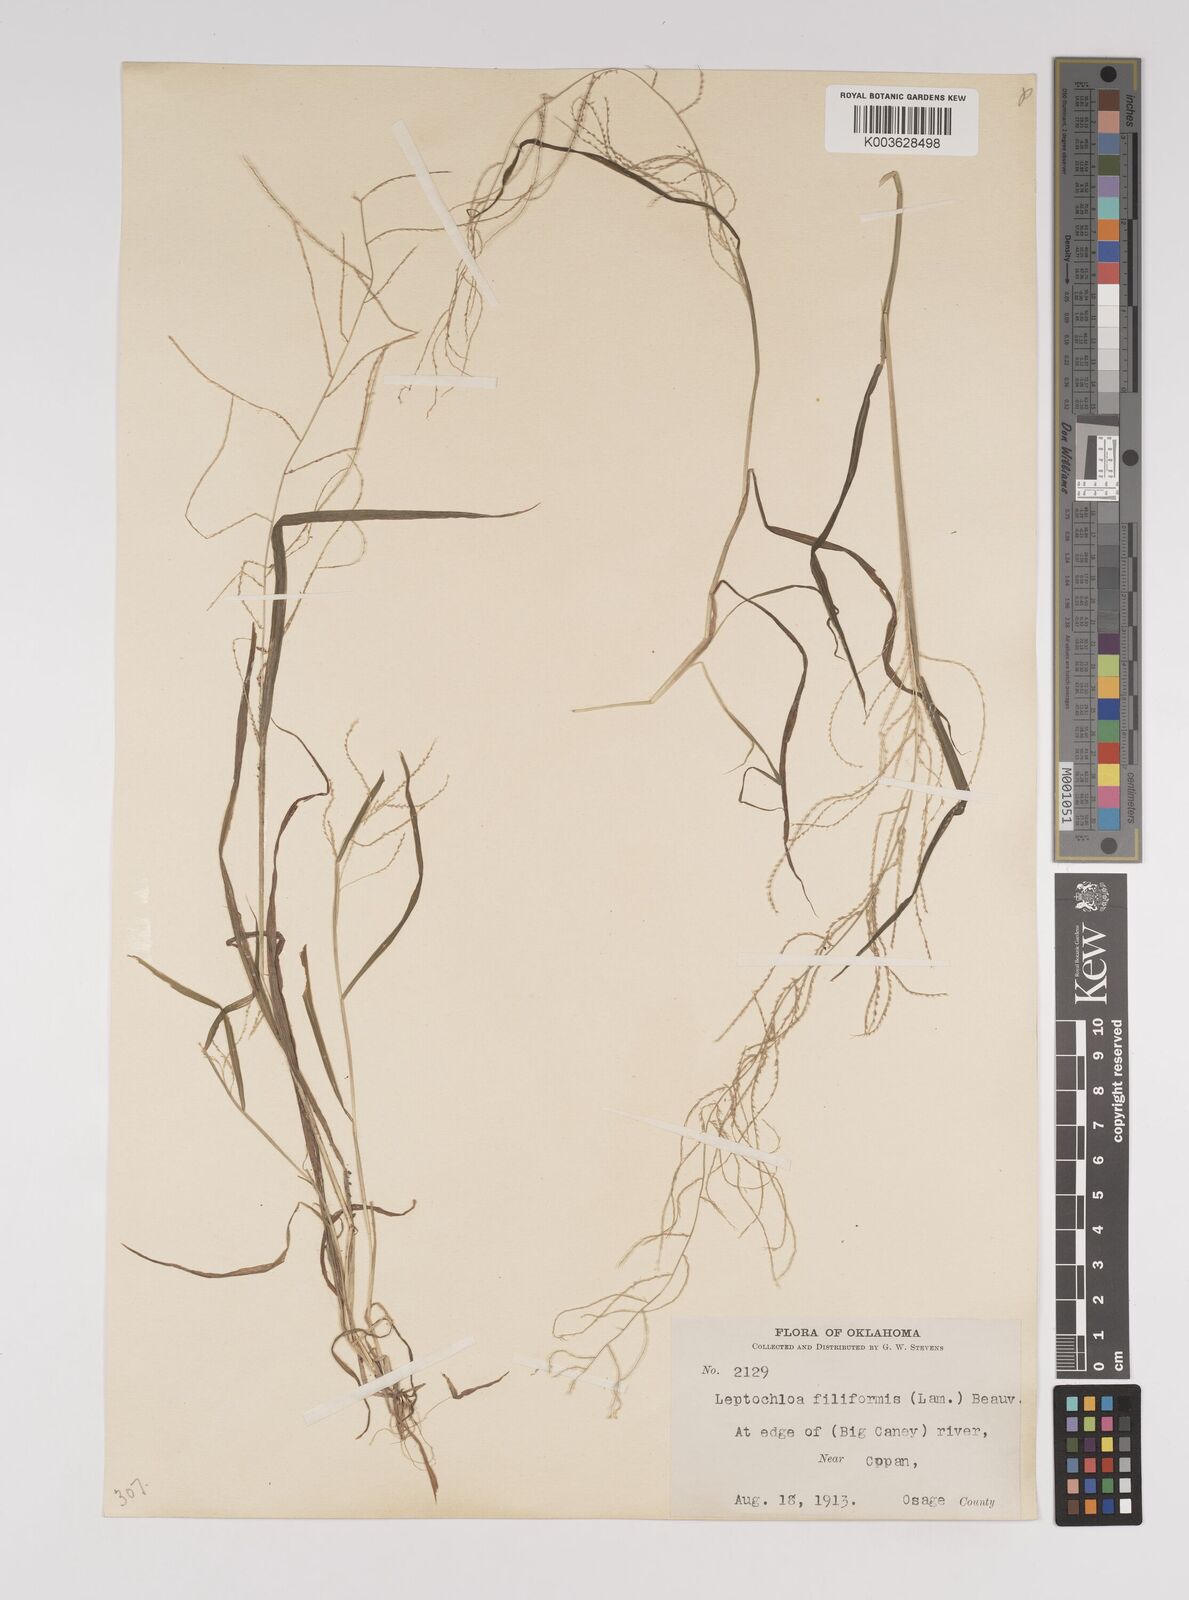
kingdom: Plantae
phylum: Tracheophyta
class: Liliopsida
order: Poales
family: Poaceae
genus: Leptochloa
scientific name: Leptochloa panicea
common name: Mucronate sprangletop
